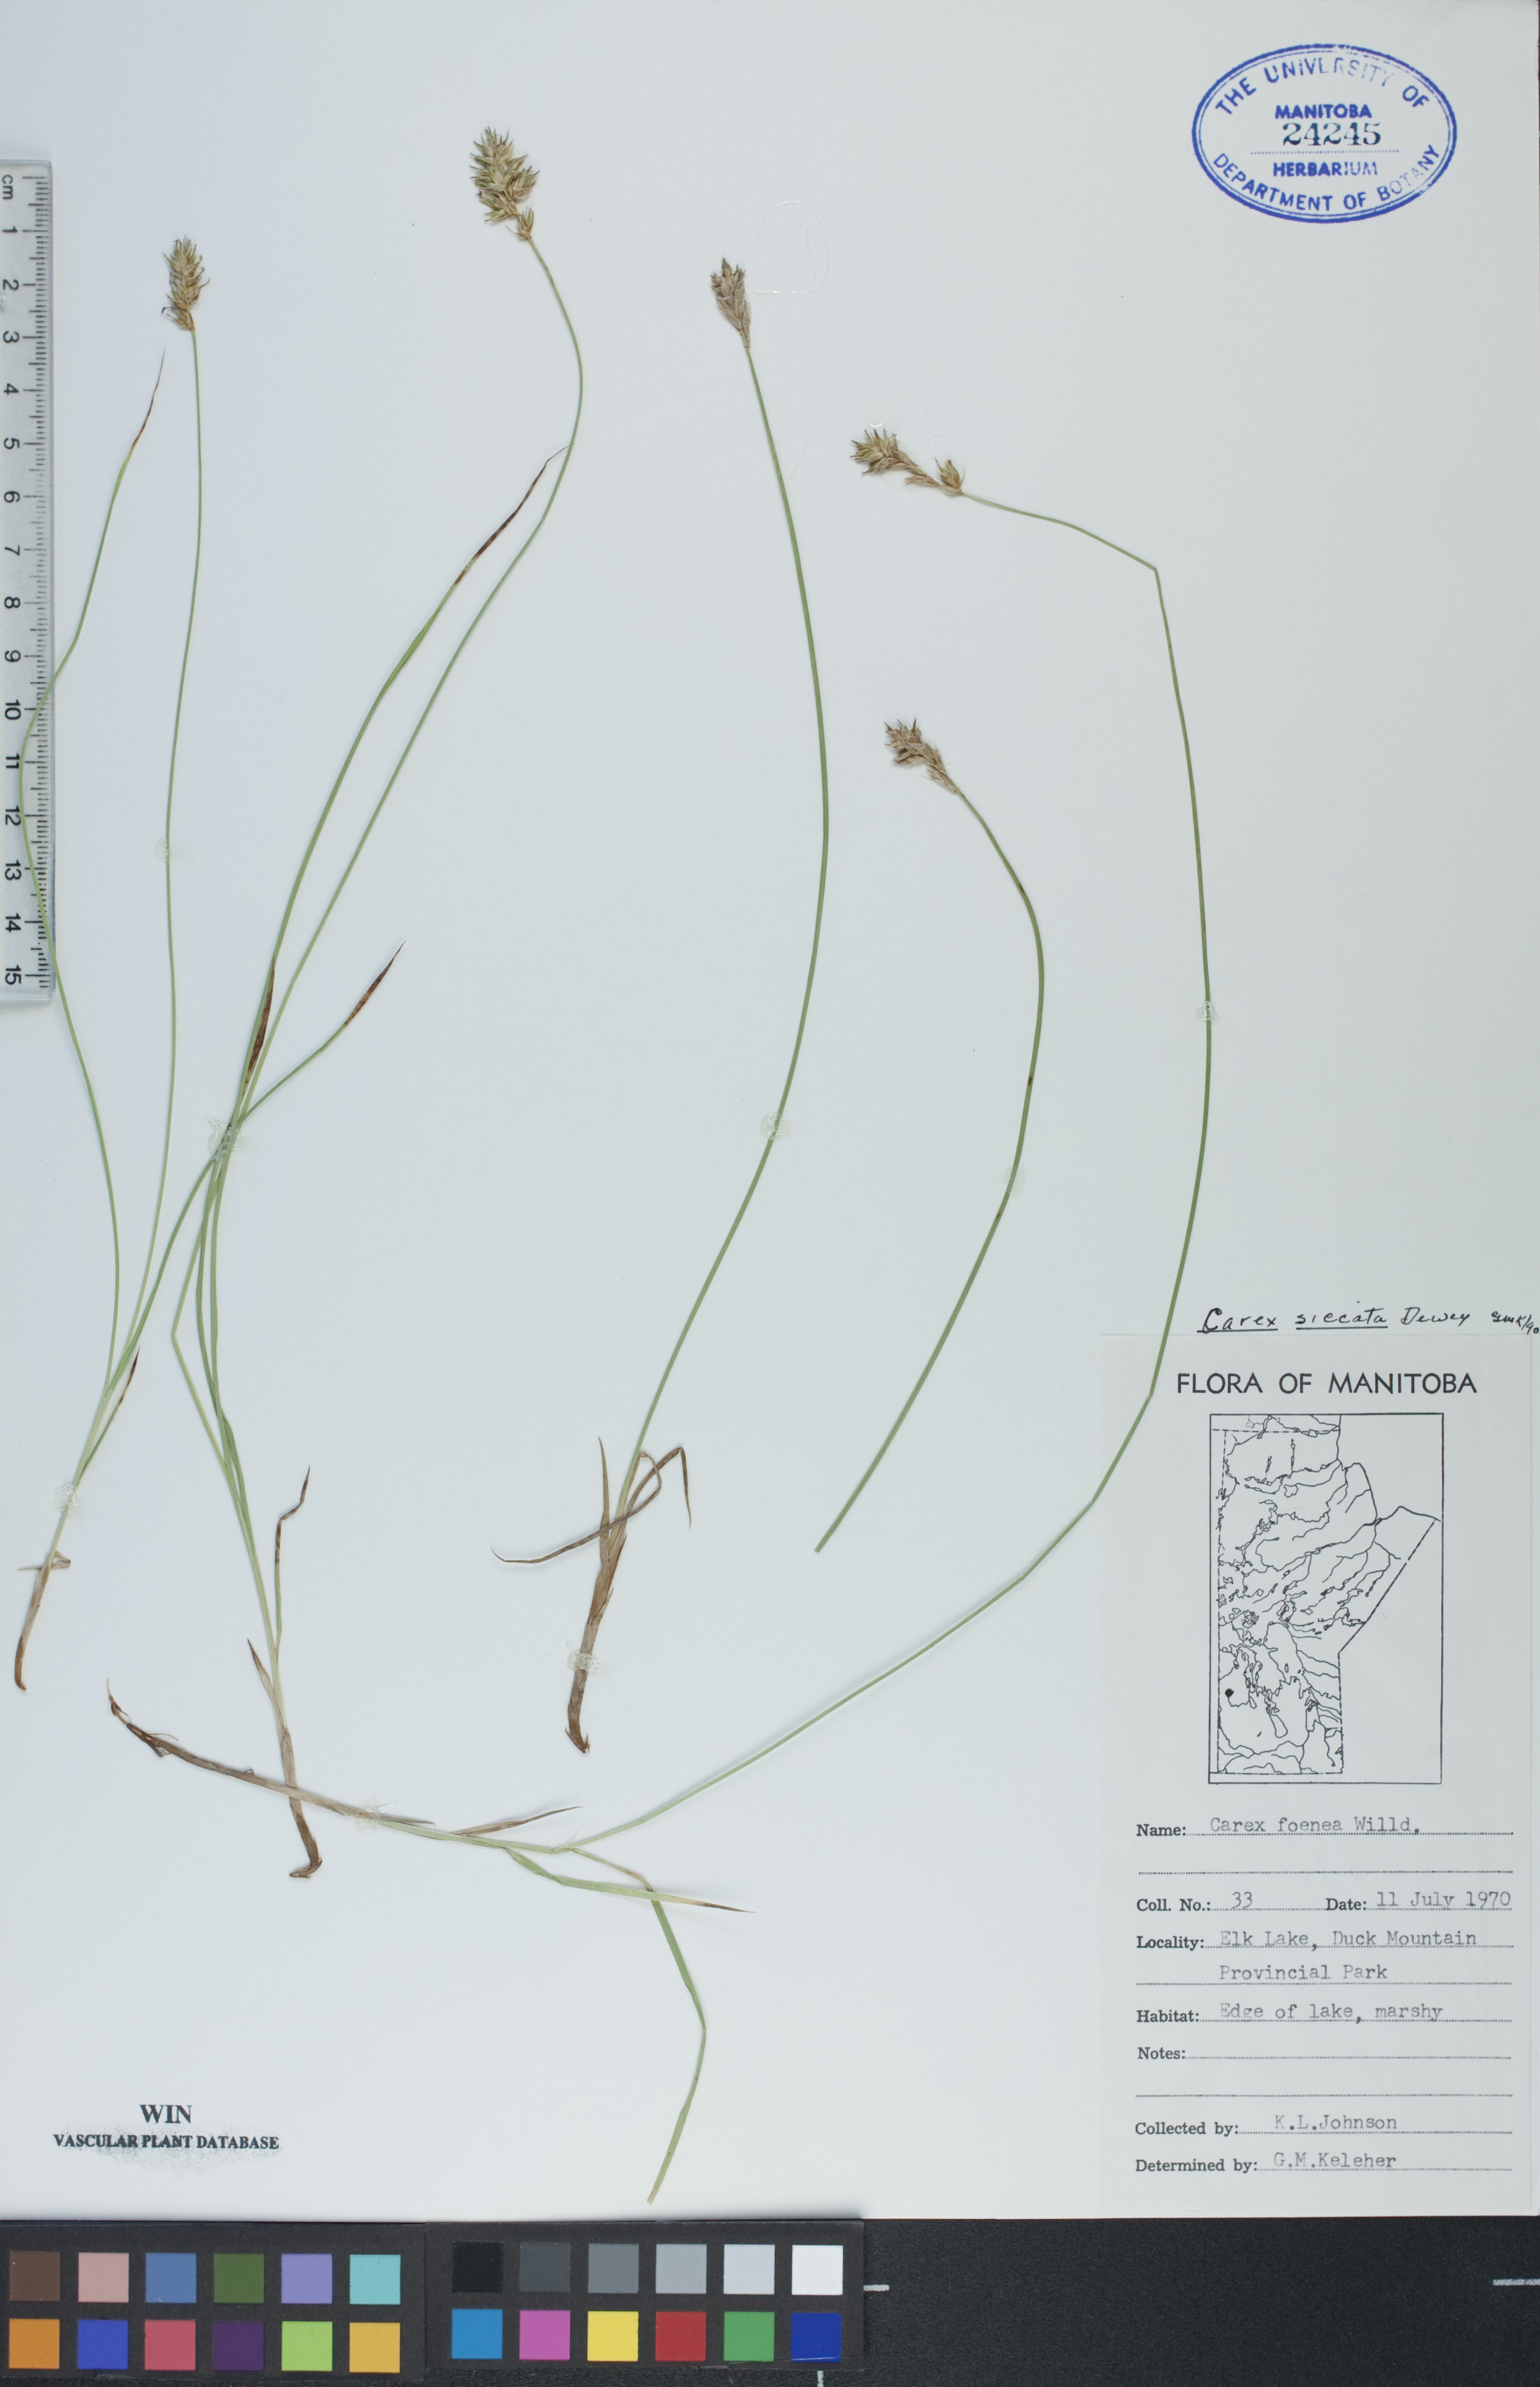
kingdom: Plantae
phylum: Tracheophyta
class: Liliopsida
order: Poales
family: Cyperaceae
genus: Carex
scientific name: Carex siccata
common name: Dry sedge
